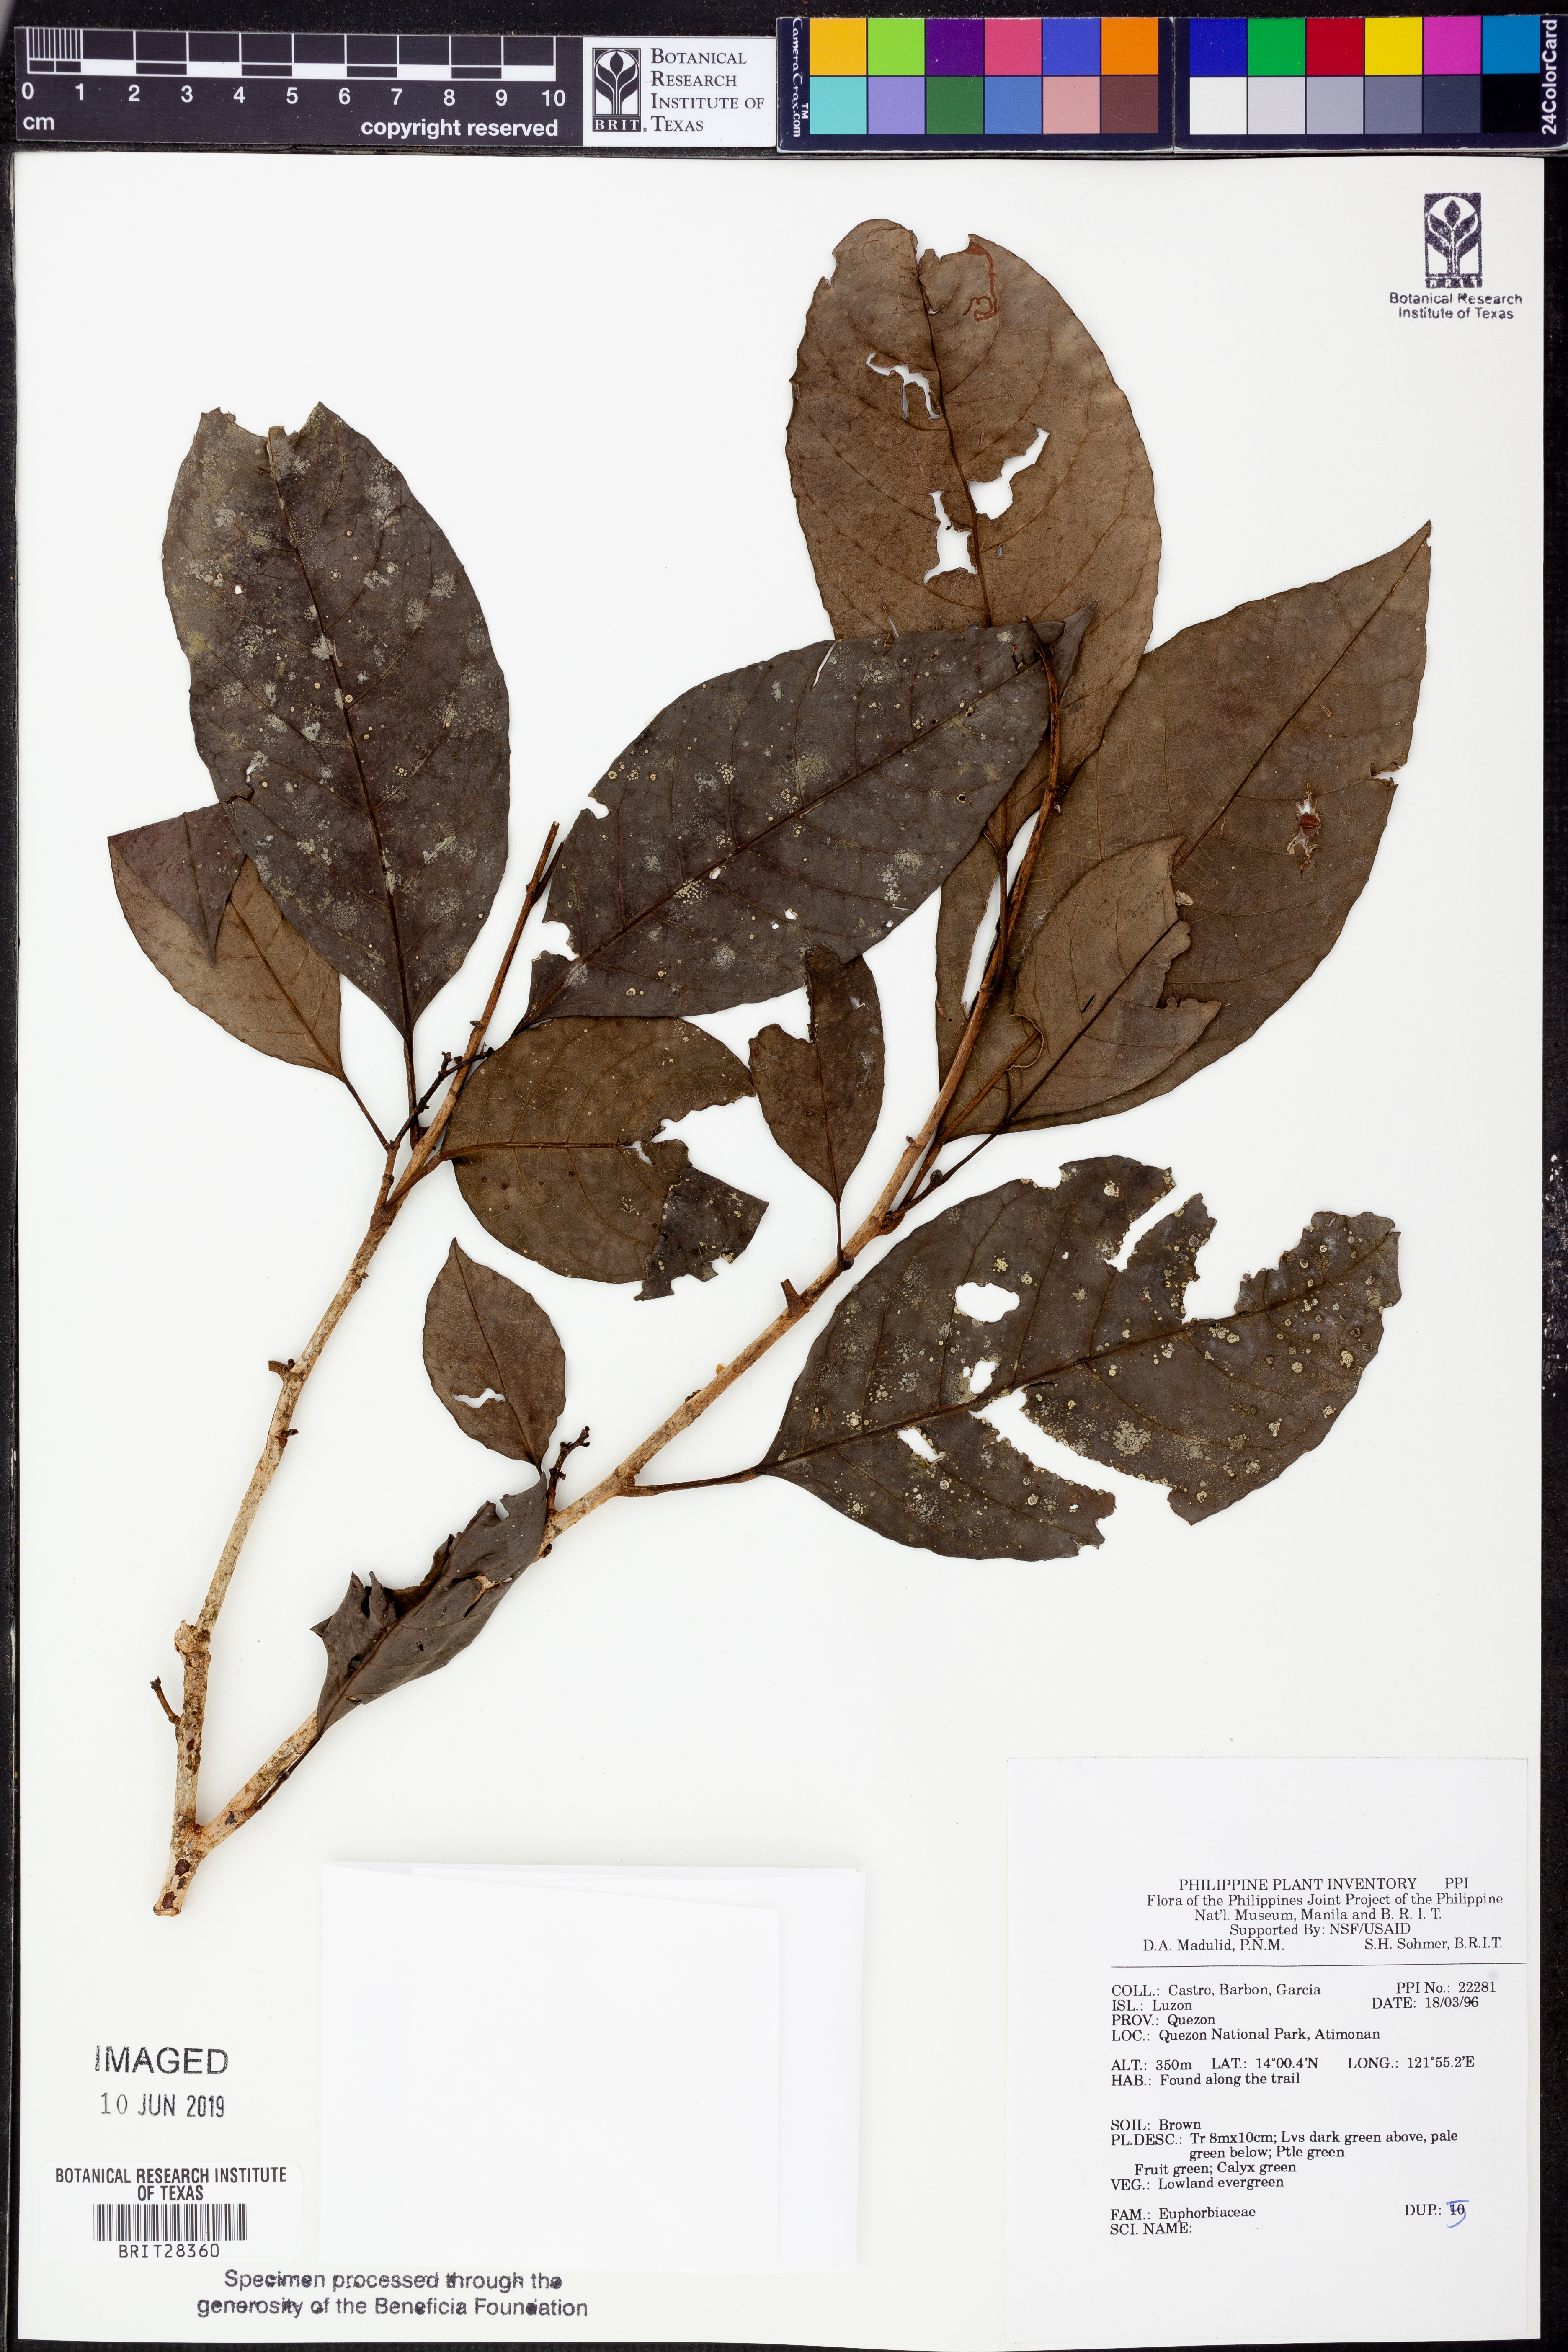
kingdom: Plantae
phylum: Tracheophyta
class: Magnoliopsida
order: Malpighiales
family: Euphorbiaceae
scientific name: Euphorbiaceae
